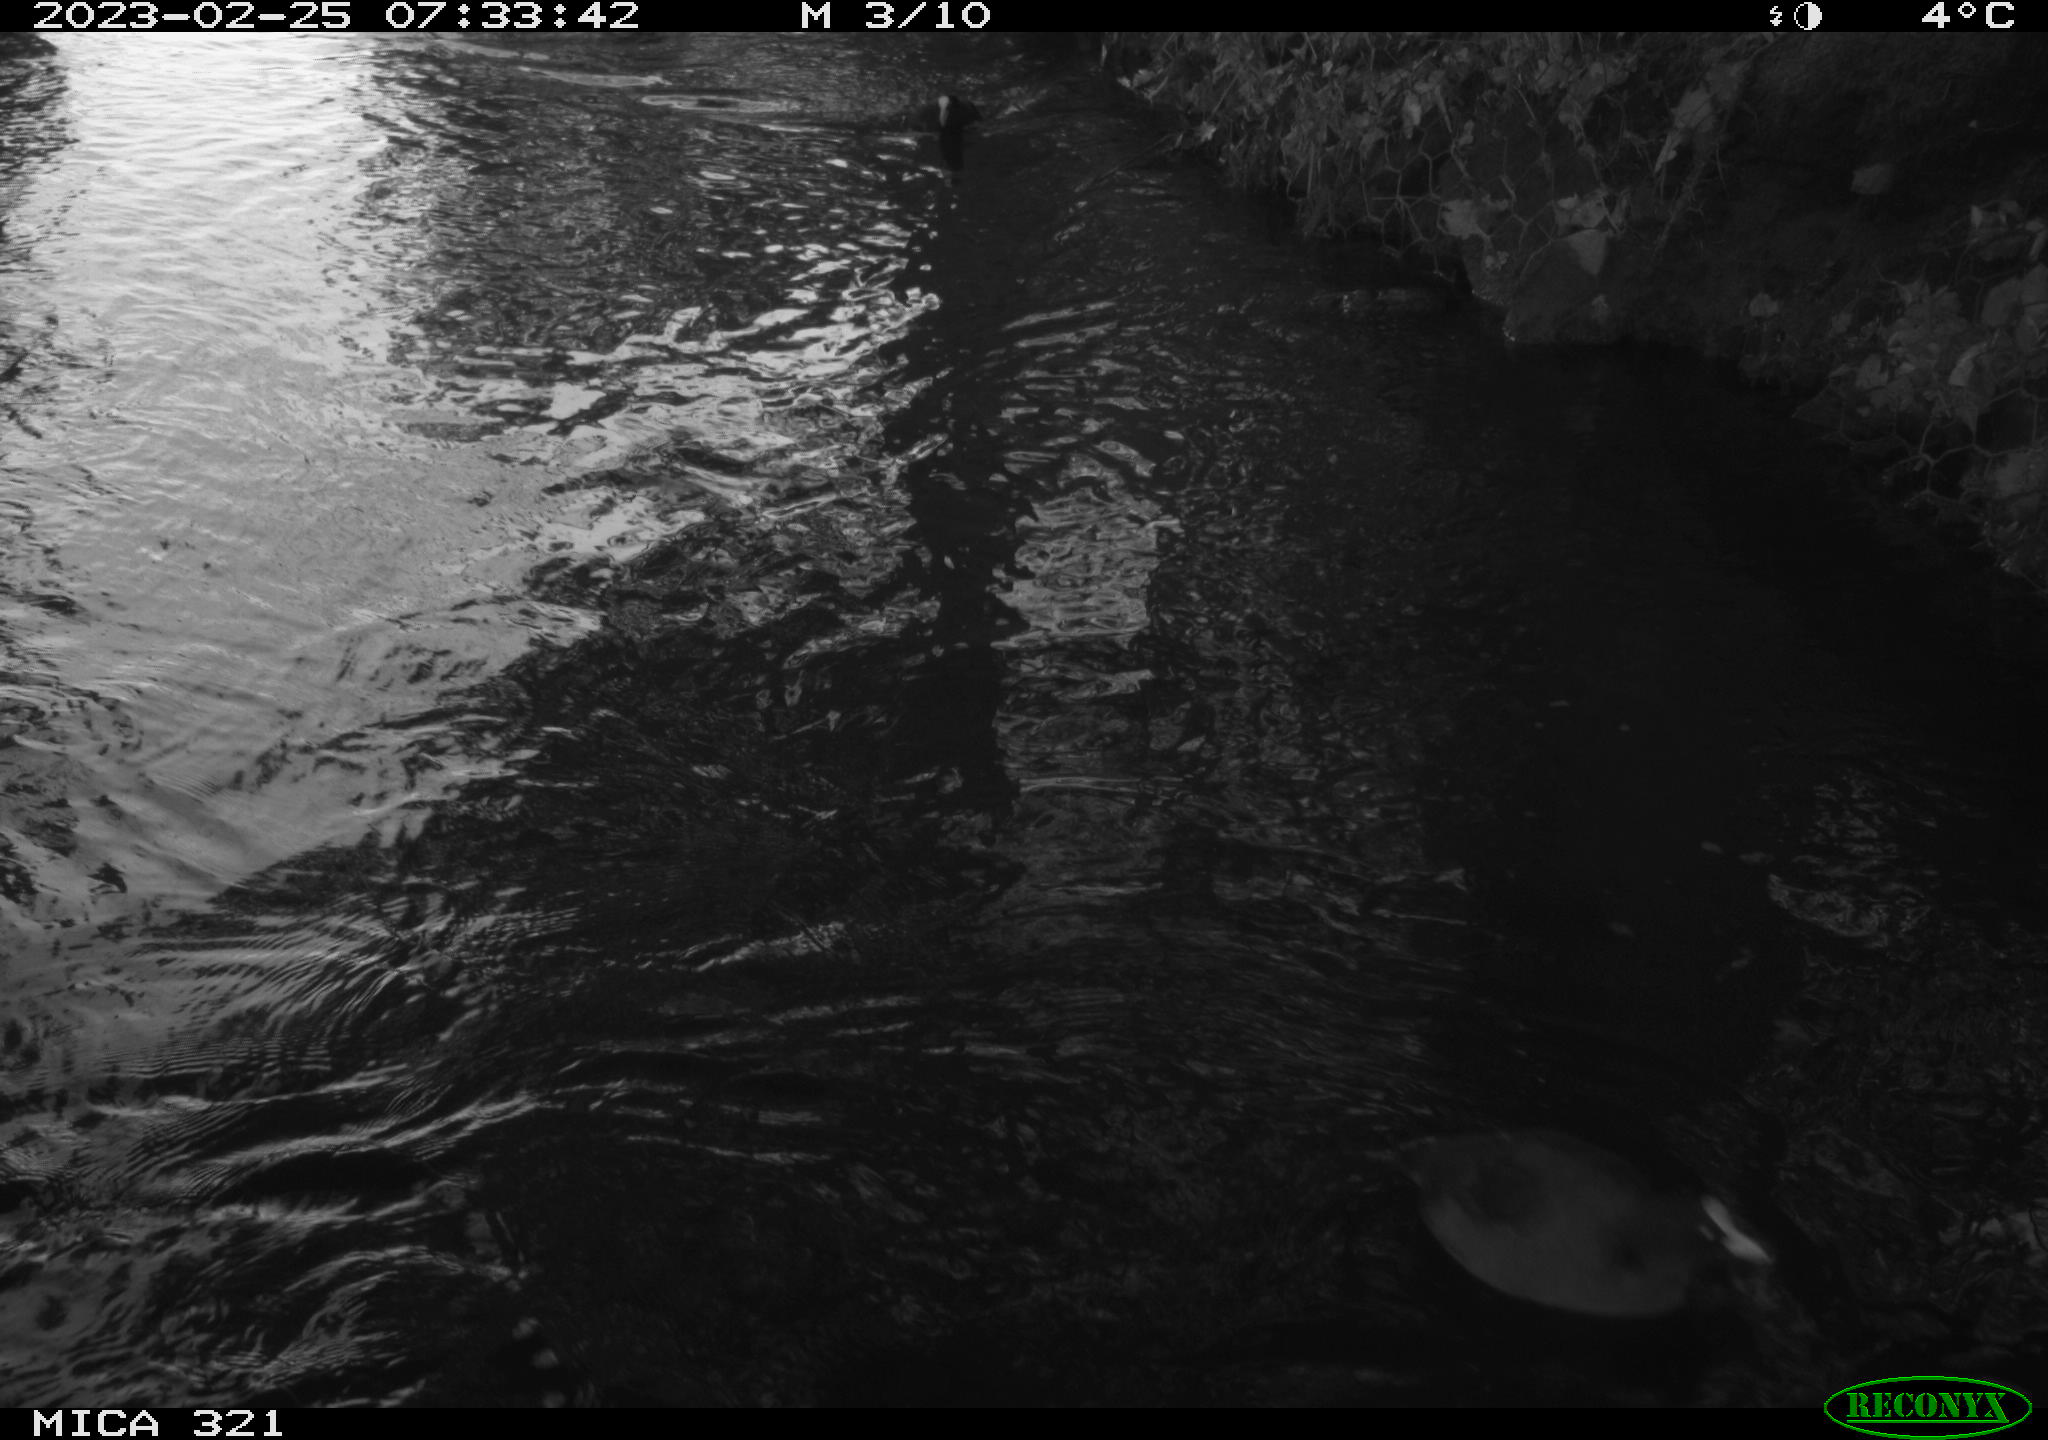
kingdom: Animalia
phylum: Chordata
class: Aves
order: Anseriformes
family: Anatidae
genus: Anas
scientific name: Anas
